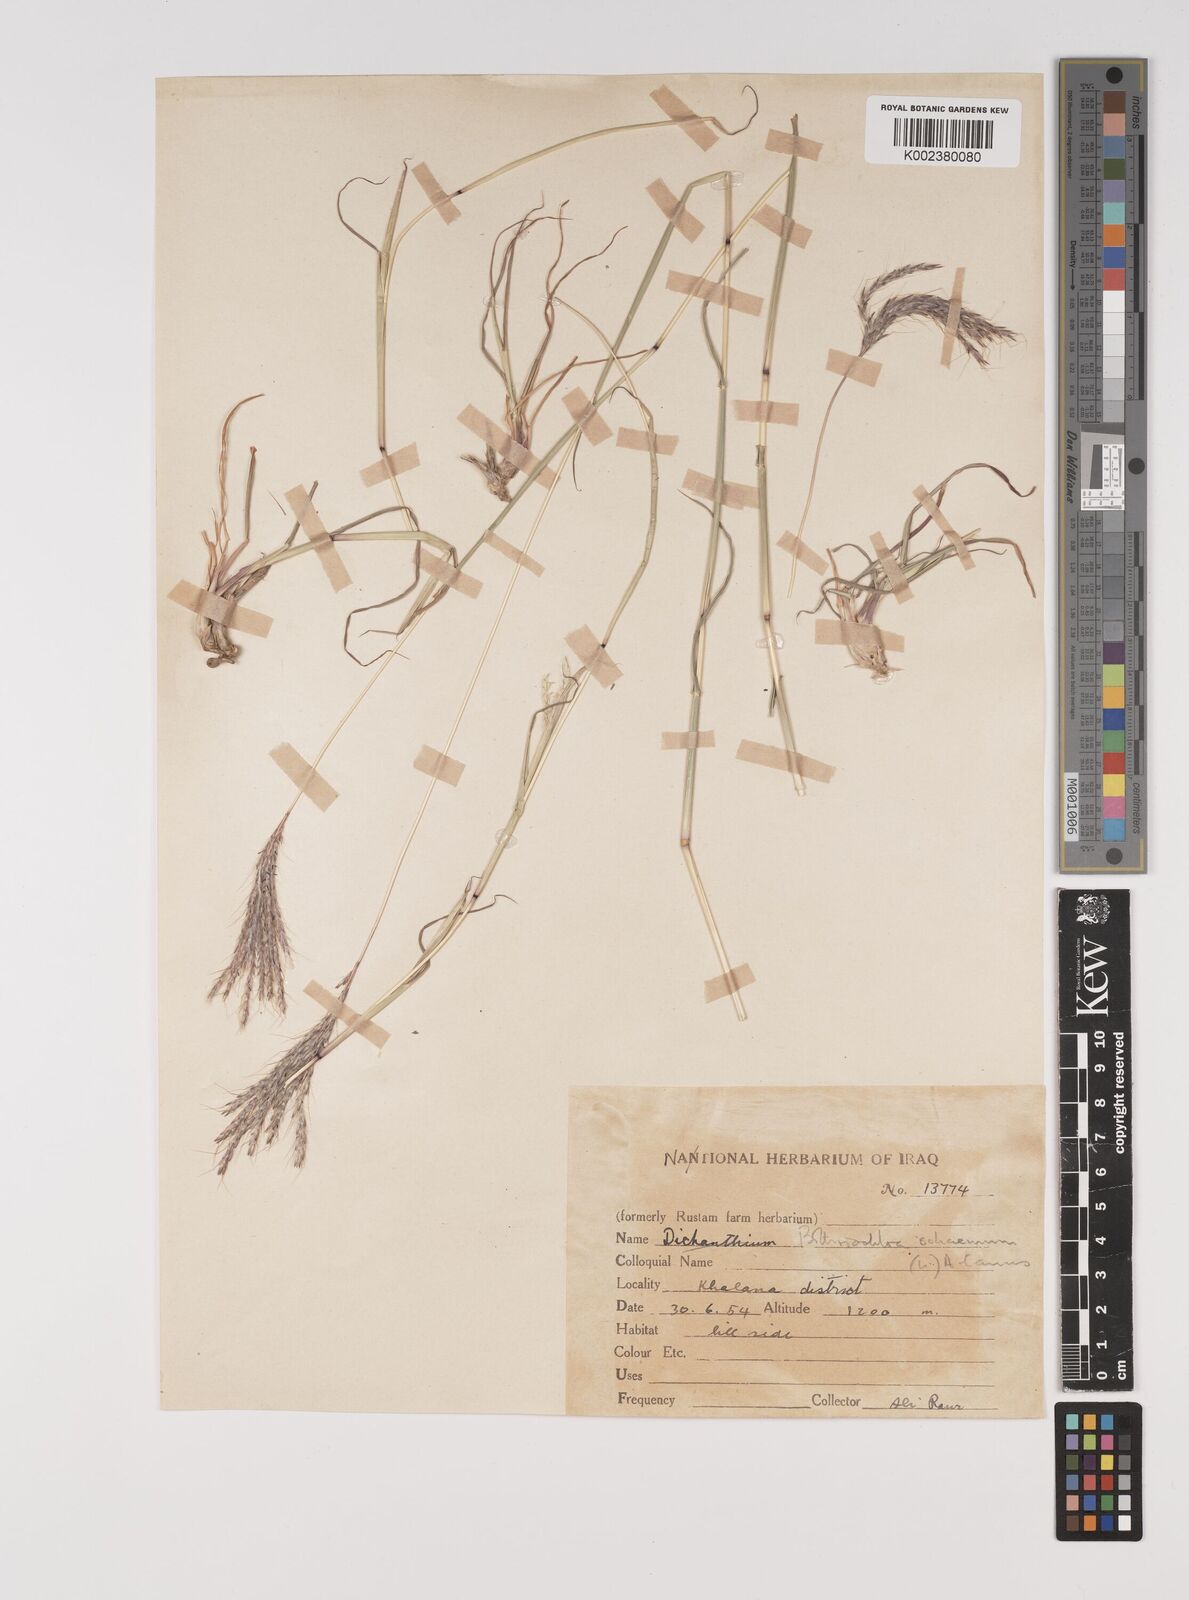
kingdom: Plantae
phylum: Tracheophyta
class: Liliopsida
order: Poales
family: Poaceae
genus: Bothriochloa
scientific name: Bothriochloa ischaemum
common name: Yellow bluestem
